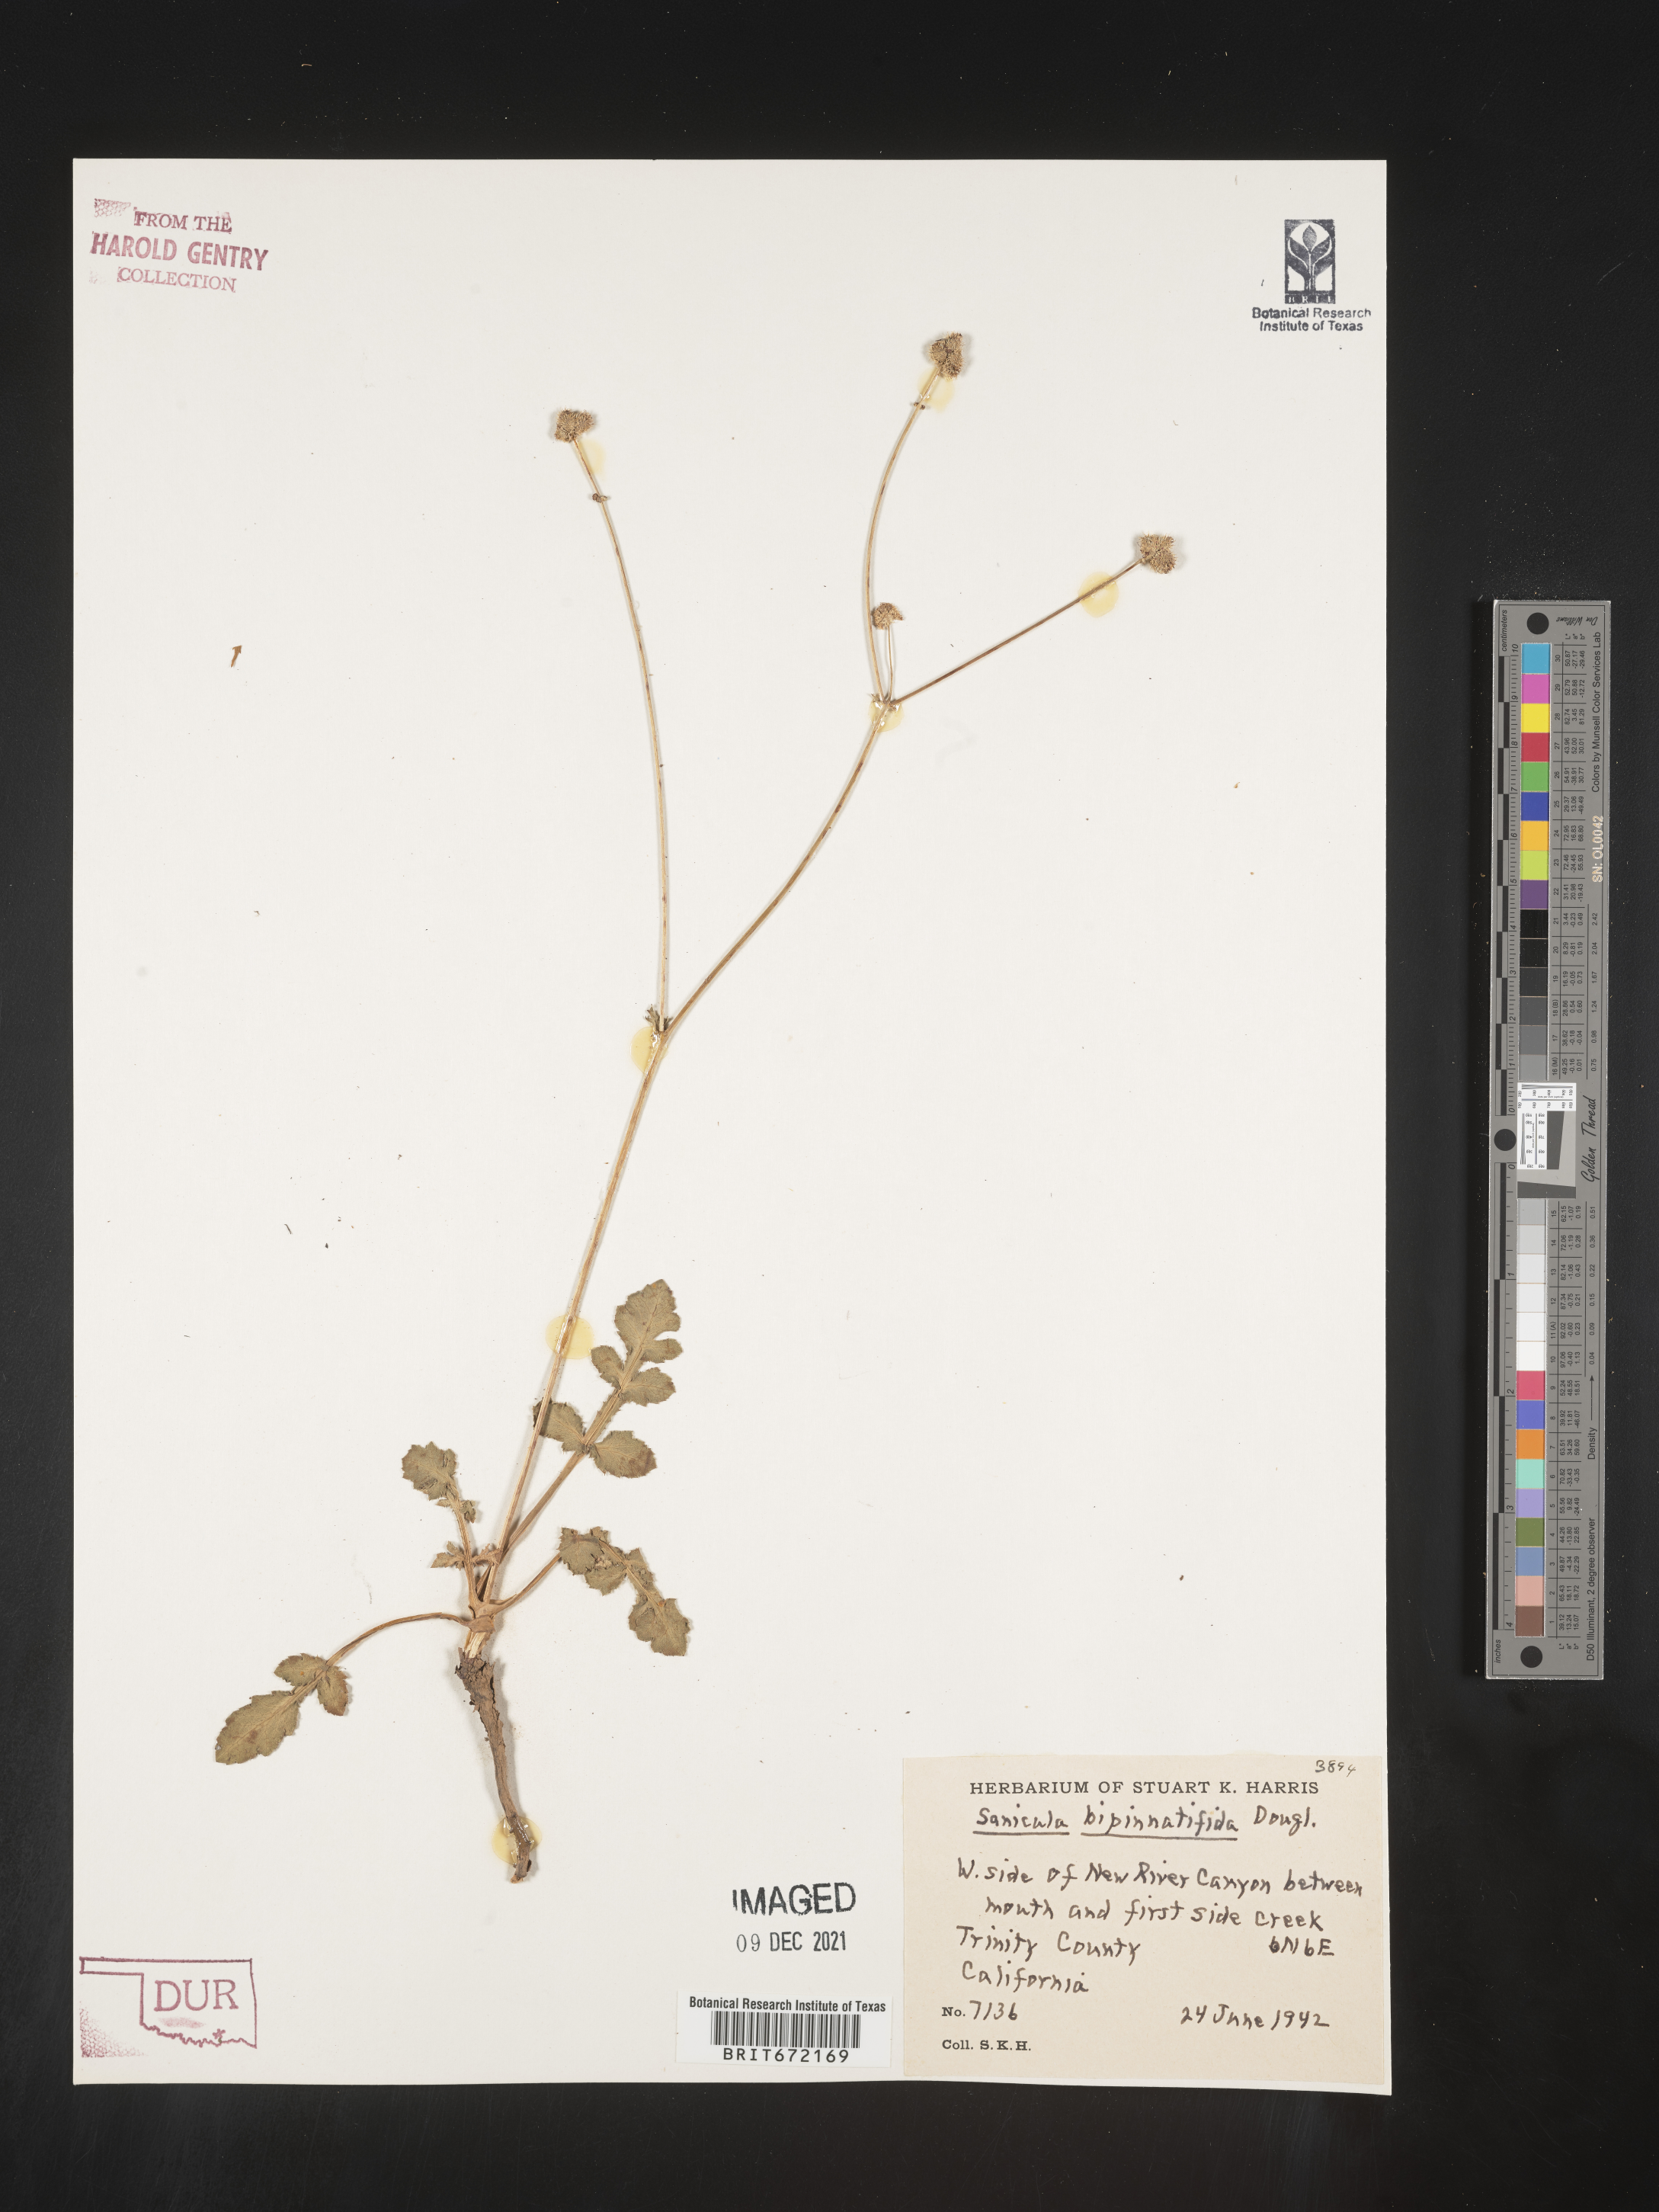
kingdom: Plantae
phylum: Tracheophyta
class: Magnoliopsida
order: Apiales
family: Apiaceae
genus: Sanicula
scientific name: Sanicula
